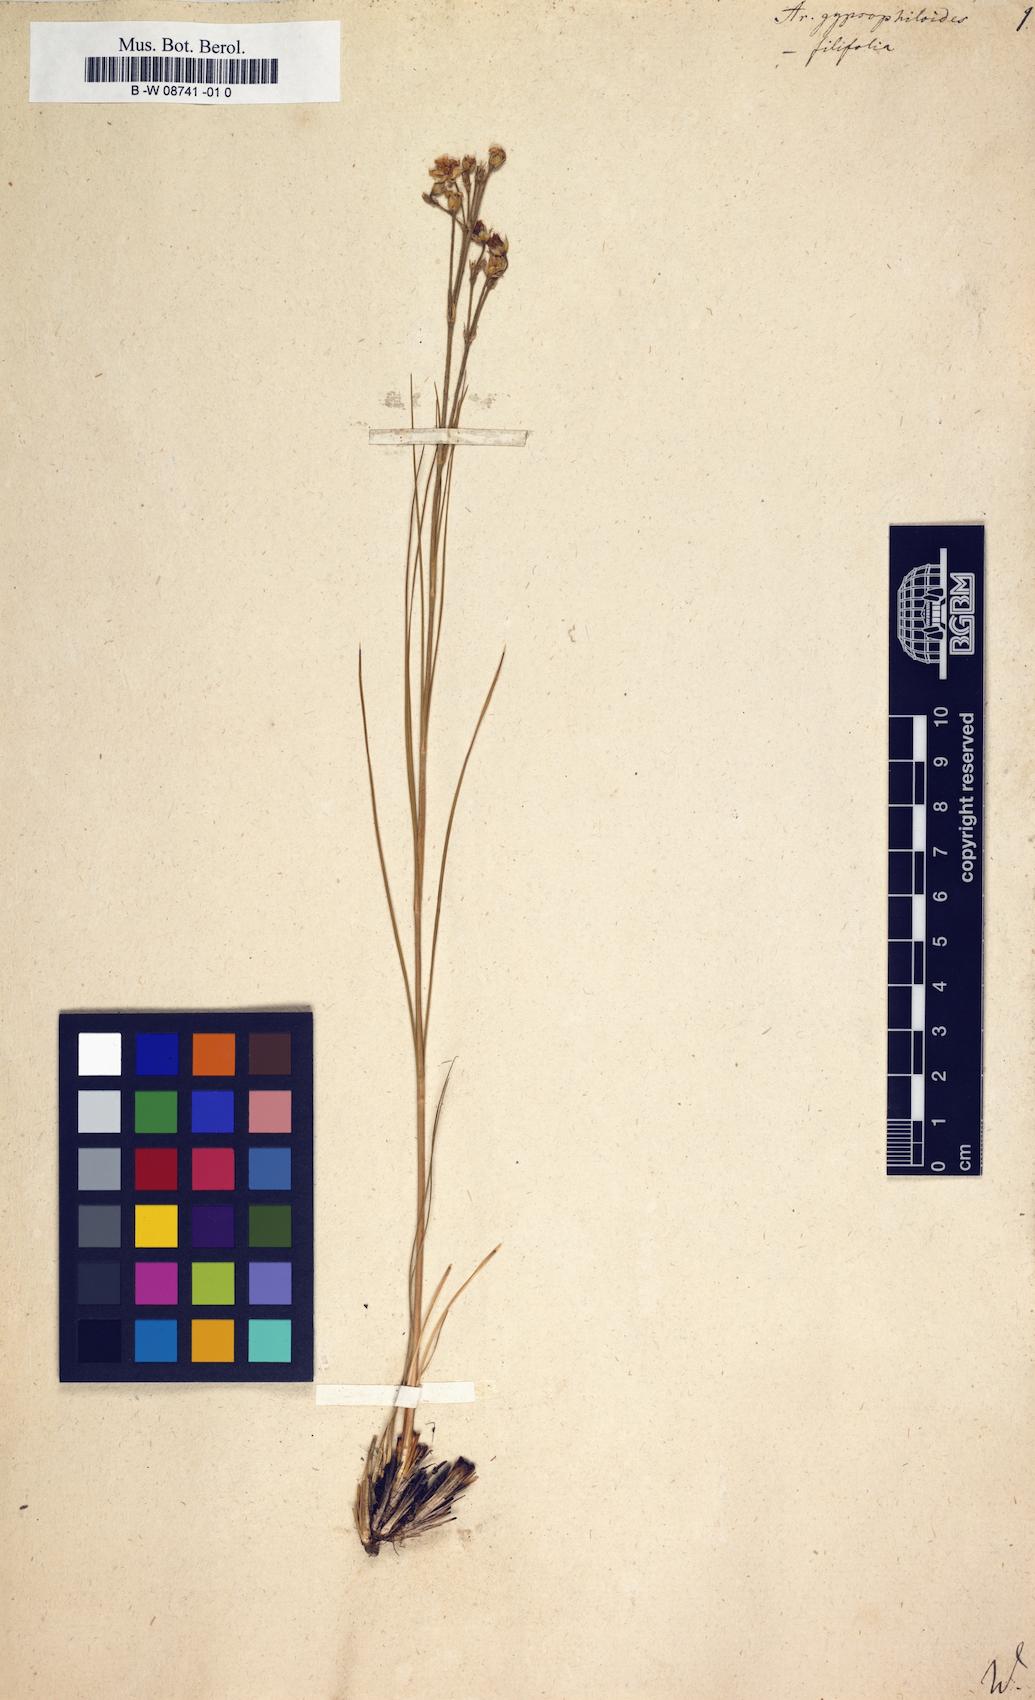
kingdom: Plantae
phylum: Tracheophyta
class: Magnoliopsida
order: Caryophyllales
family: Caryophyllaceae
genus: Eremogone
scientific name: Eremogone
